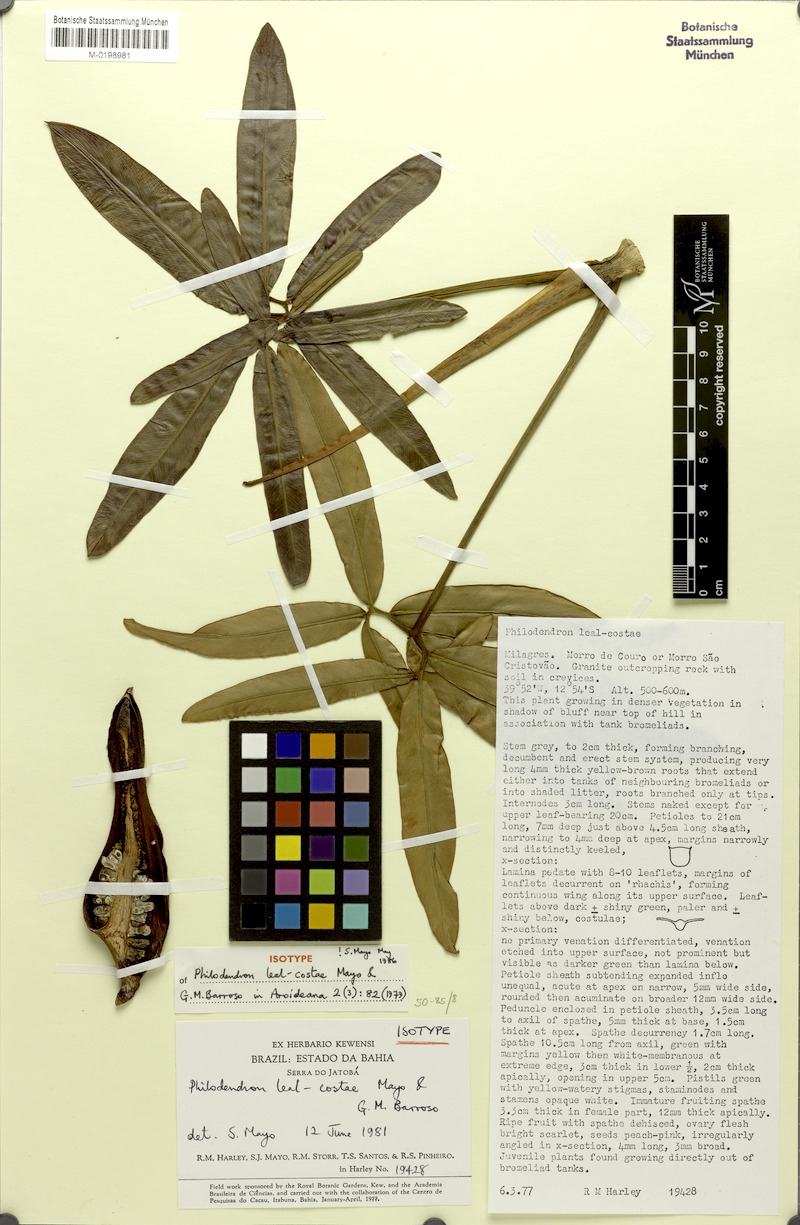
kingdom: Plantae
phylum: Tracheophyta
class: Liliopsida
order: Alismatales
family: Araceae
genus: Thaumatophyllum
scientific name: Thaumatophyllum leal-costae
